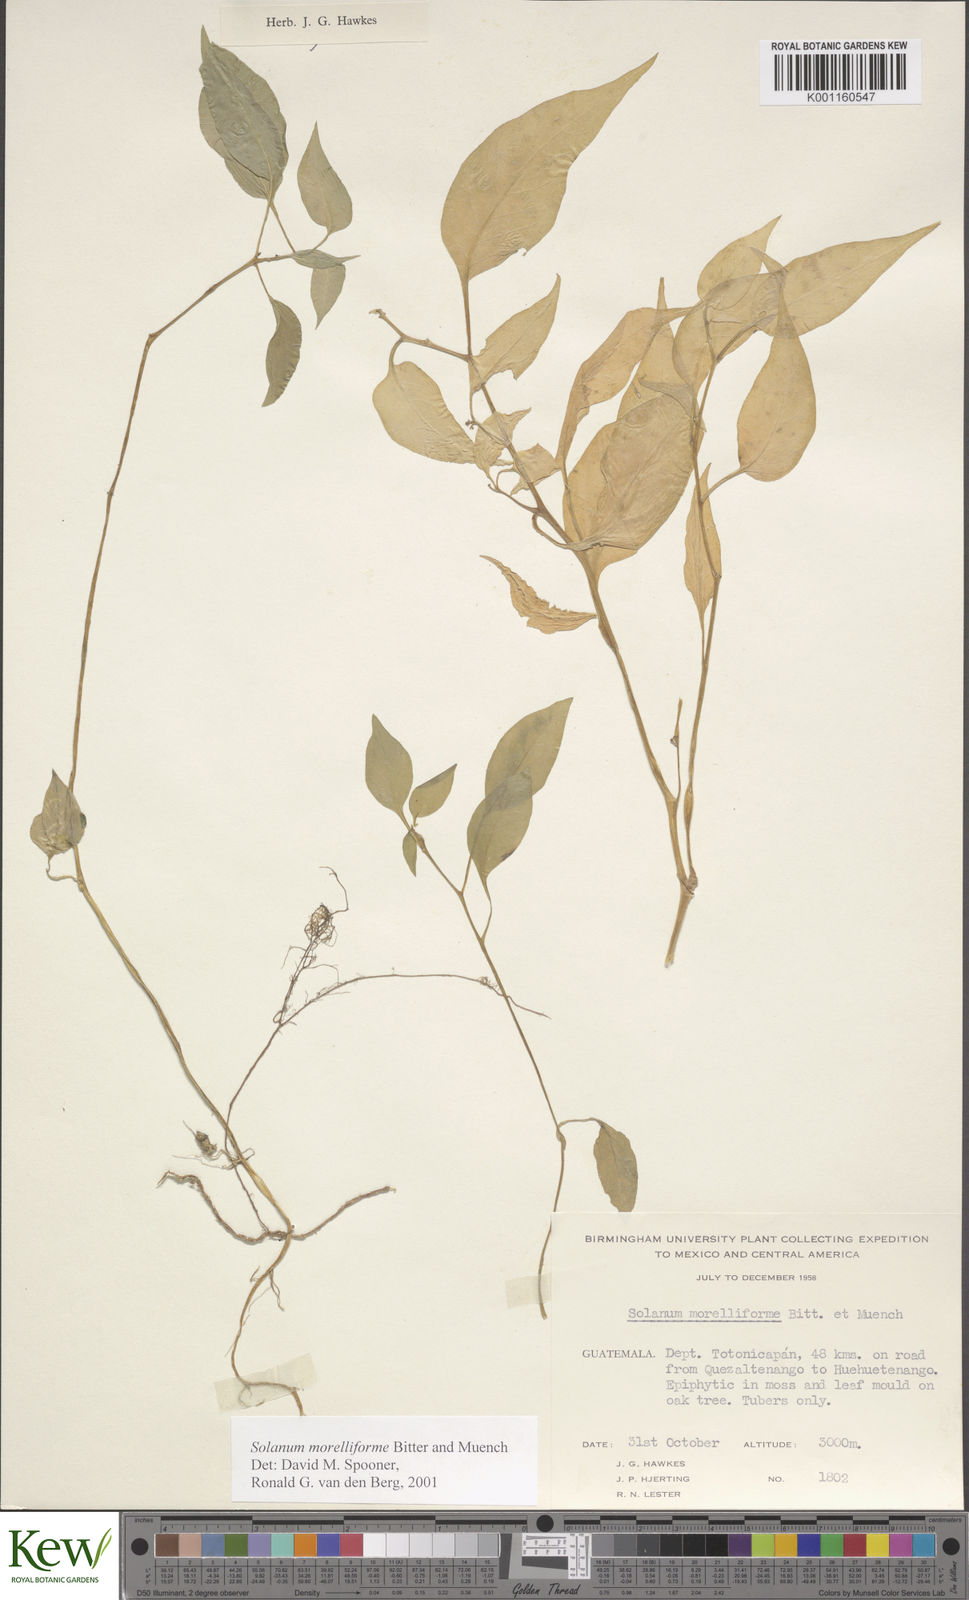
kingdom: Plantae
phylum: Tracheophyta
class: Magnoliopsida
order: Solanales
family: Solanaceae
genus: Solanum
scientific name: Solanum
